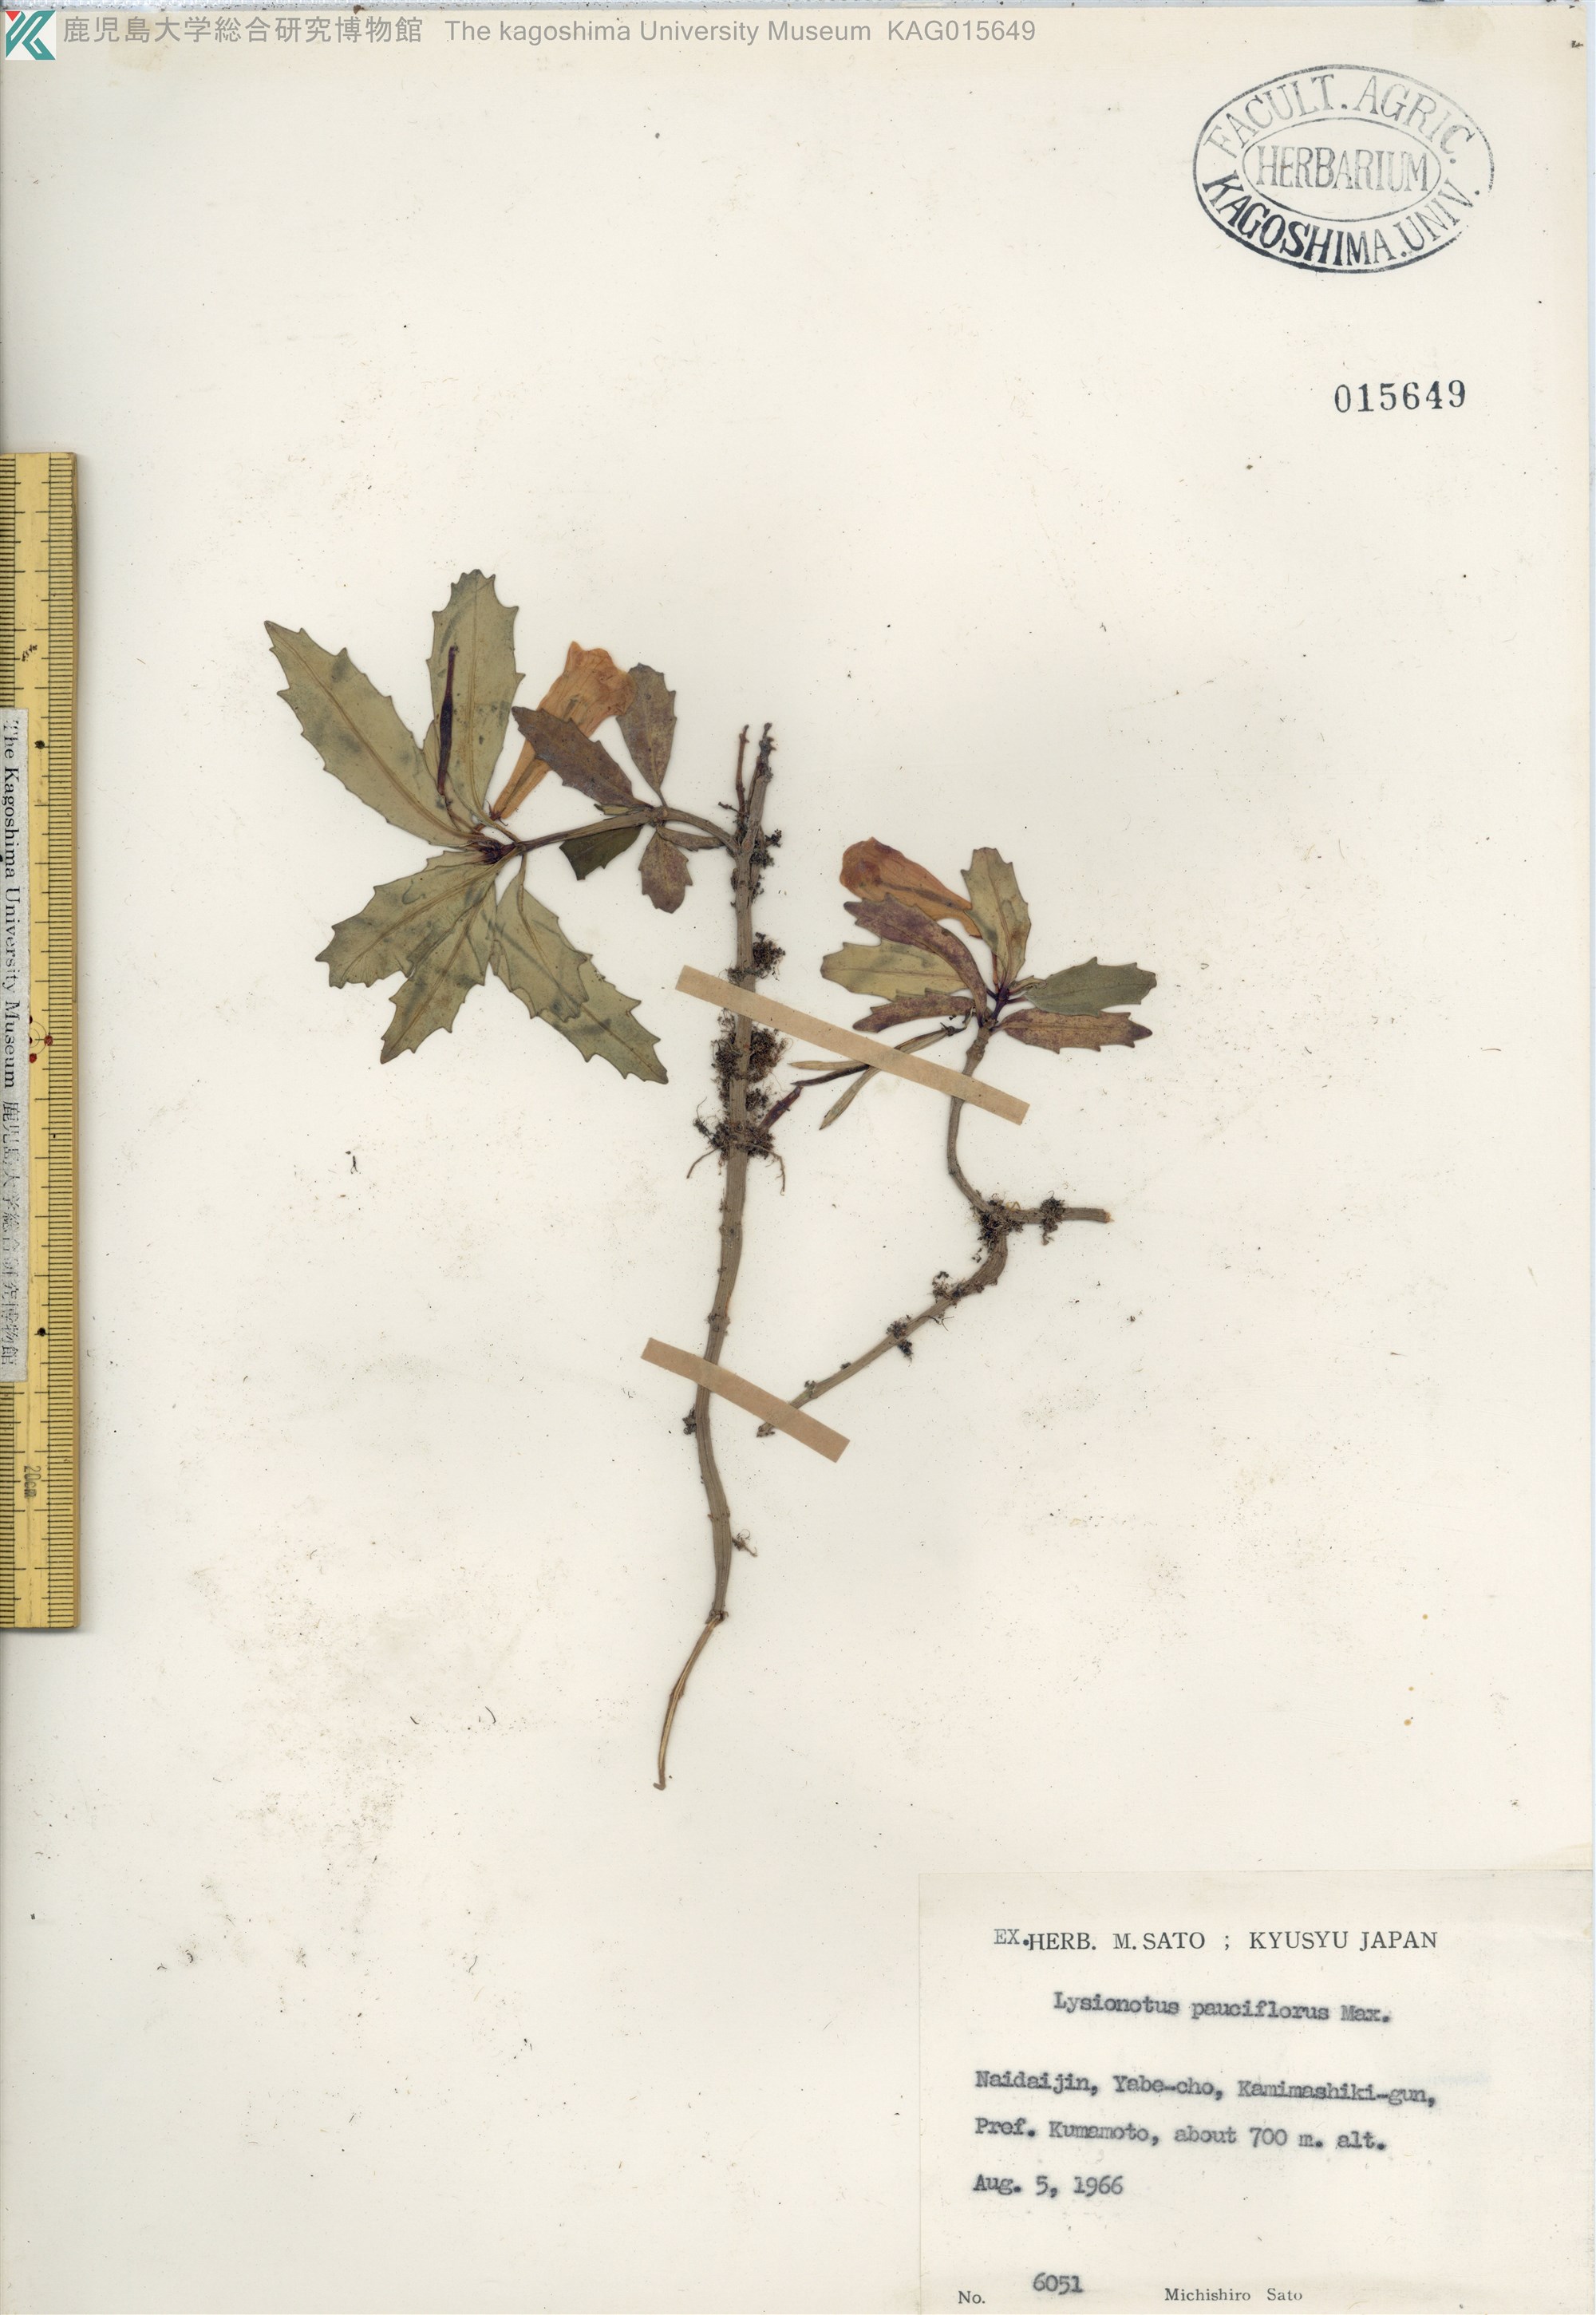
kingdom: Plantae
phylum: Tracheophyta
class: Magnoliopsida
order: Lamiales
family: Gesneriaceae
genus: Lysionotus
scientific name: Lysionotus pauciflorus
